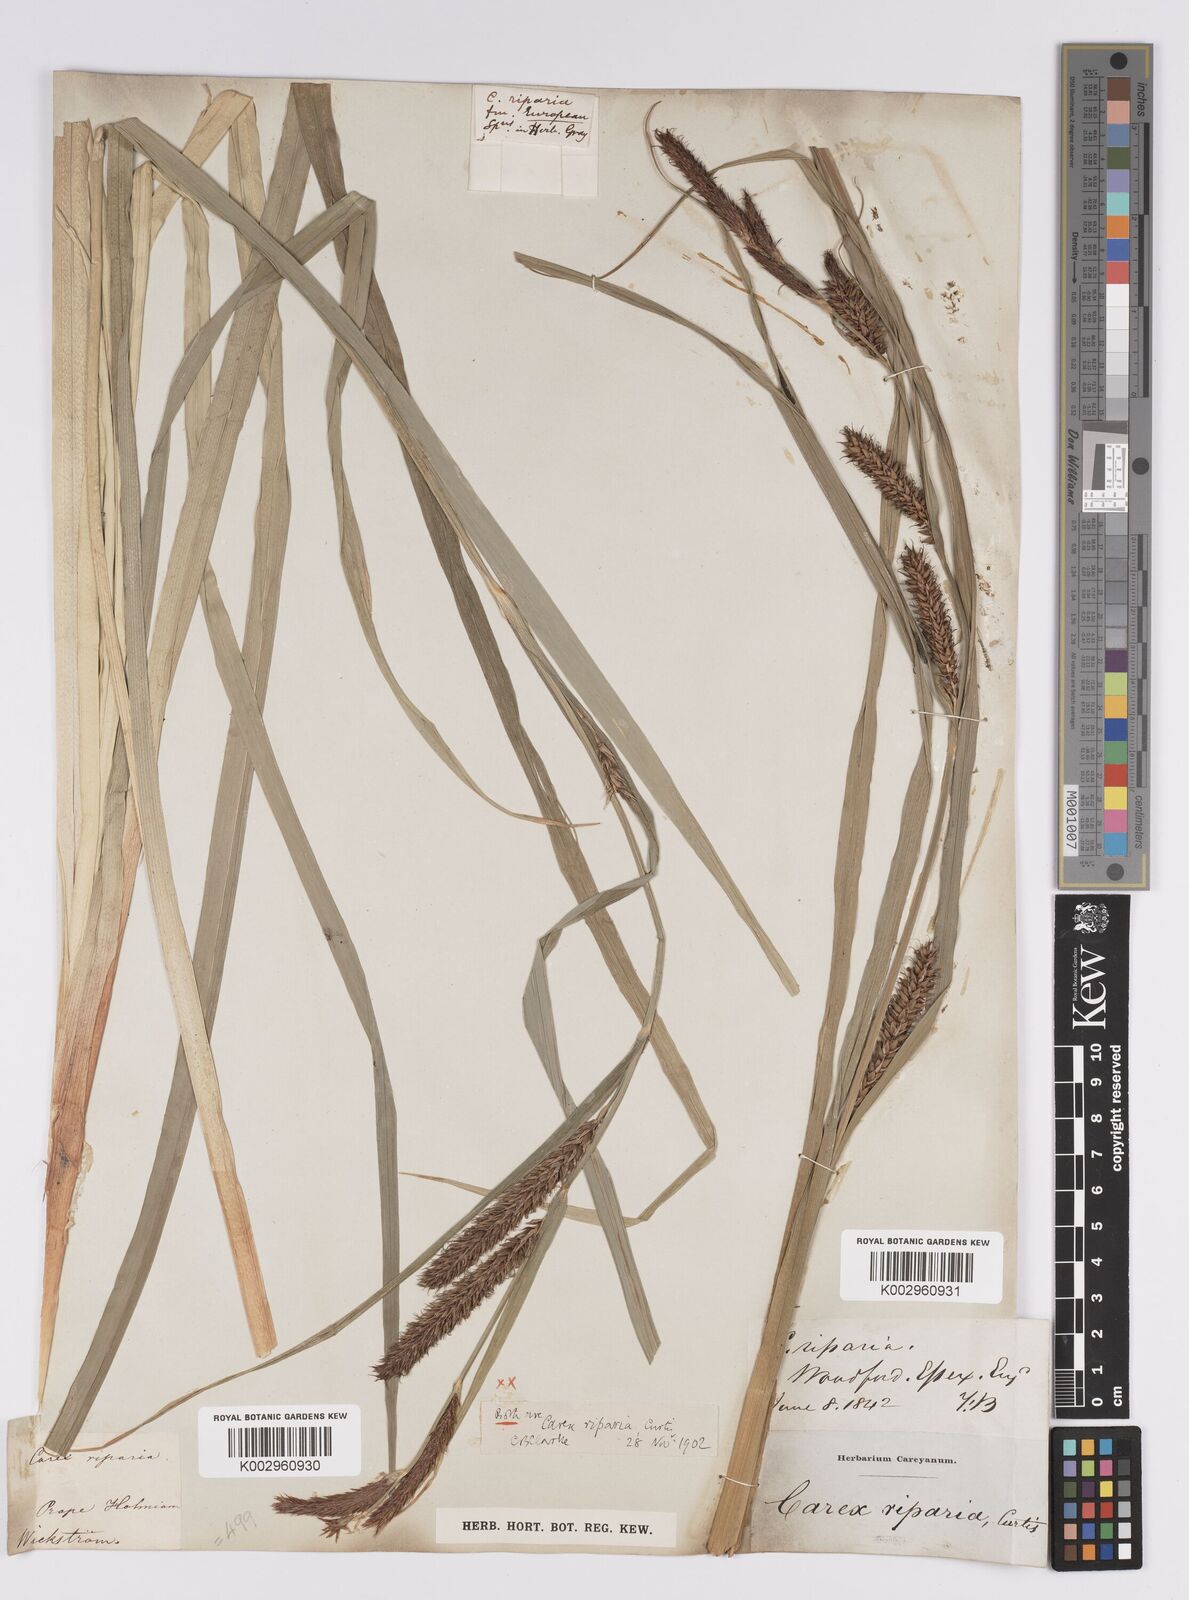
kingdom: Plantae
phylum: Tracheophyta
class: Liliopsida
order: Poales
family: Cyperaceae
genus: Carex
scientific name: Carex riparia
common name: Greater pond-sedge
